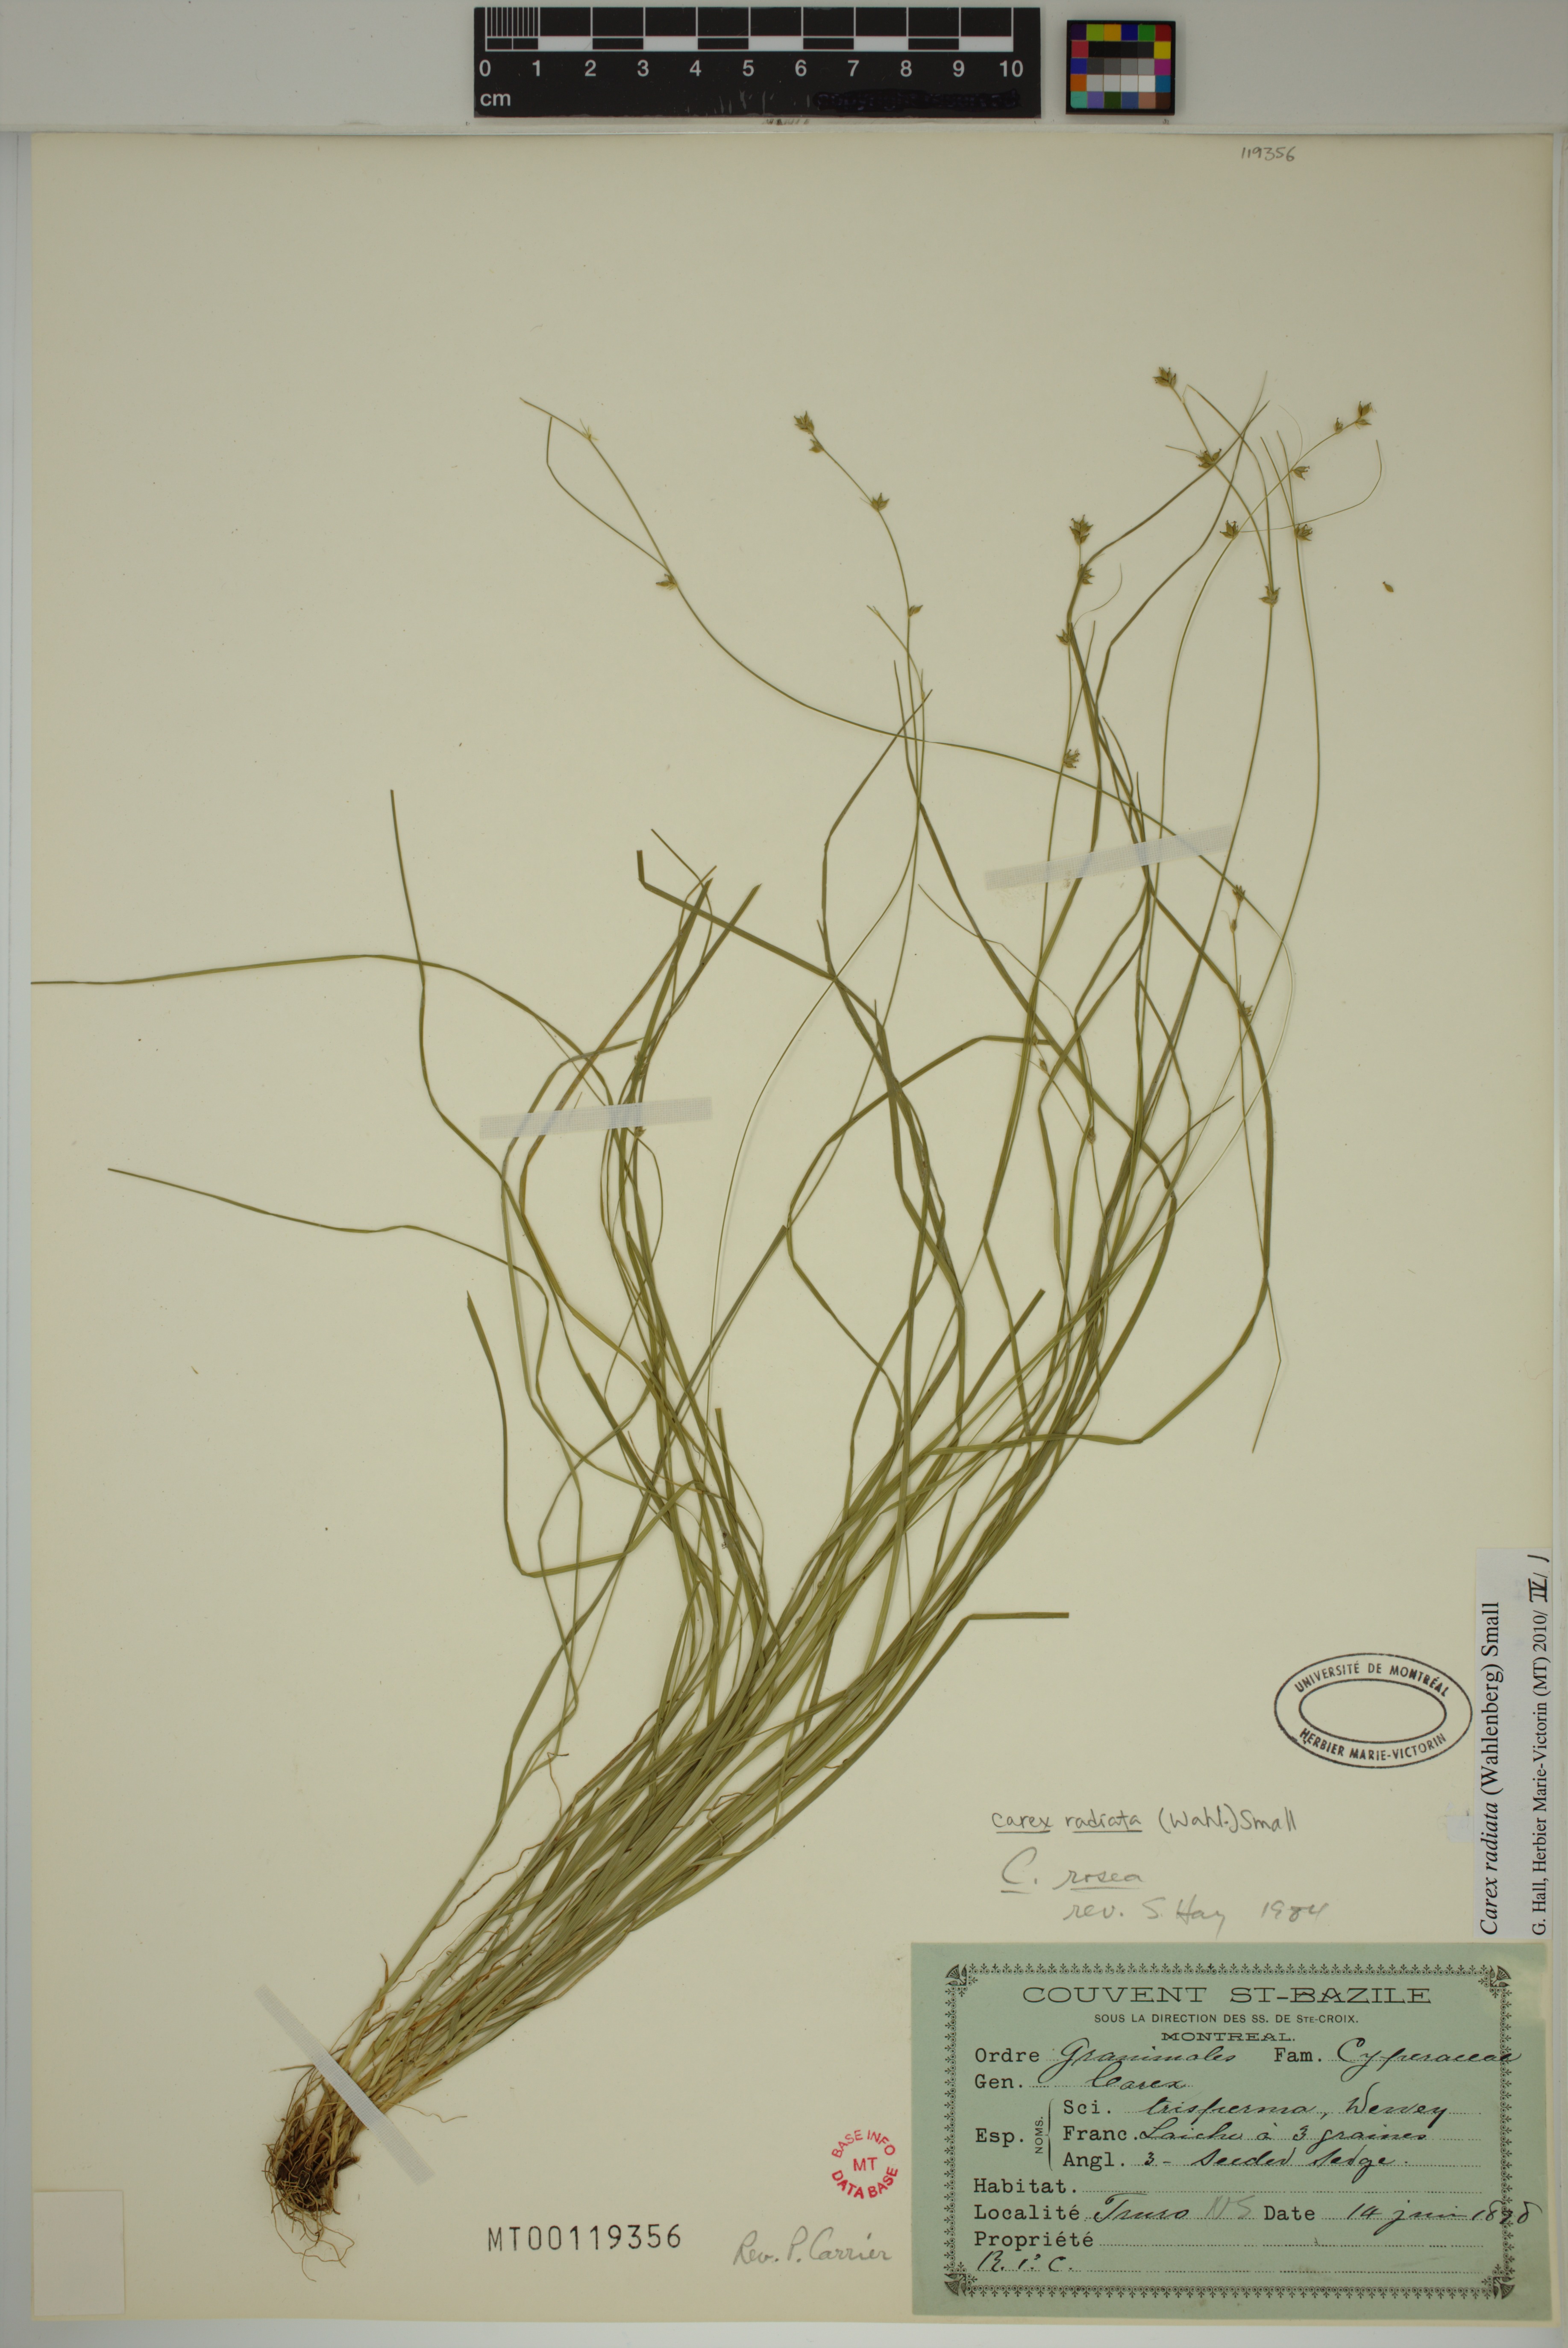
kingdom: Plantae
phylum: Tracheophyta
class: Liliopsida
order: Poales
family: Cyperaceae
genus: Carex
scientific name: Carex radiata
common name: Eastern star sedge
